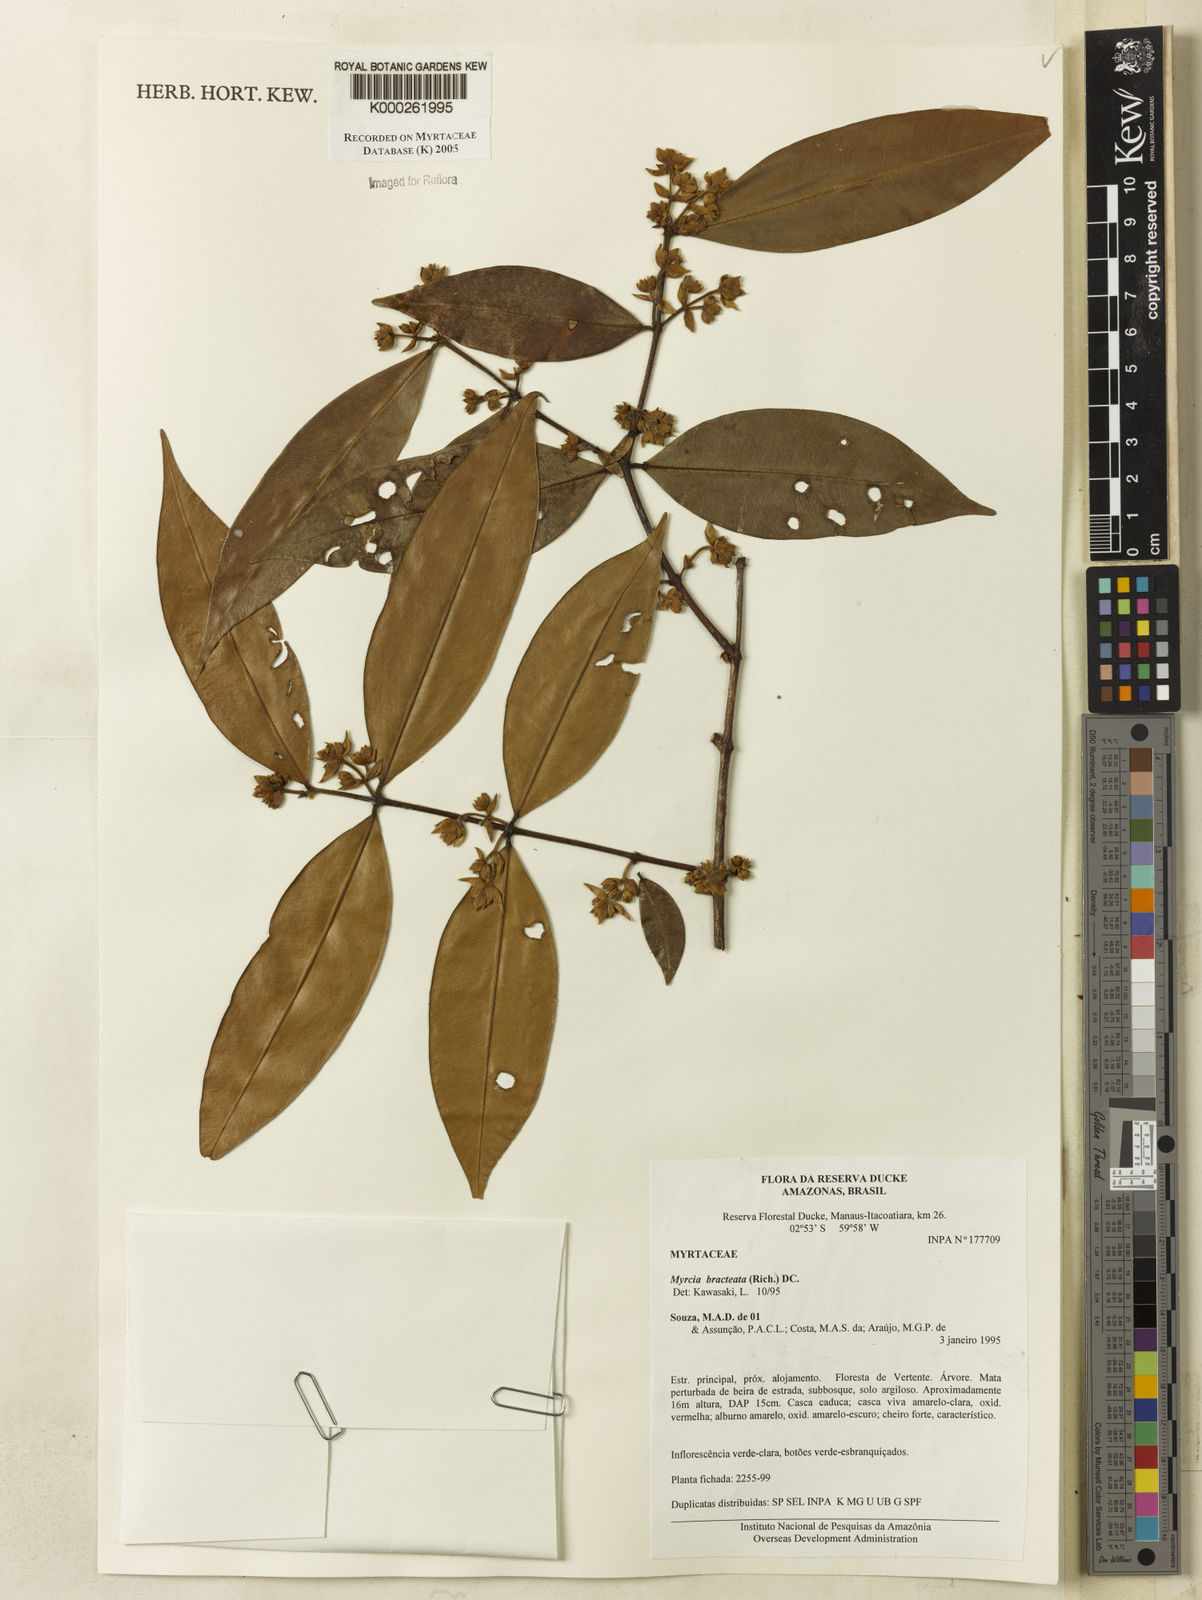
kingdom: Plantae
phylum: Tracheophyta
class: Magnoliopsida
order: Myrtales
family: Myrtaceae
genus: Myrcia
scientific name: Myrcia bracteata
